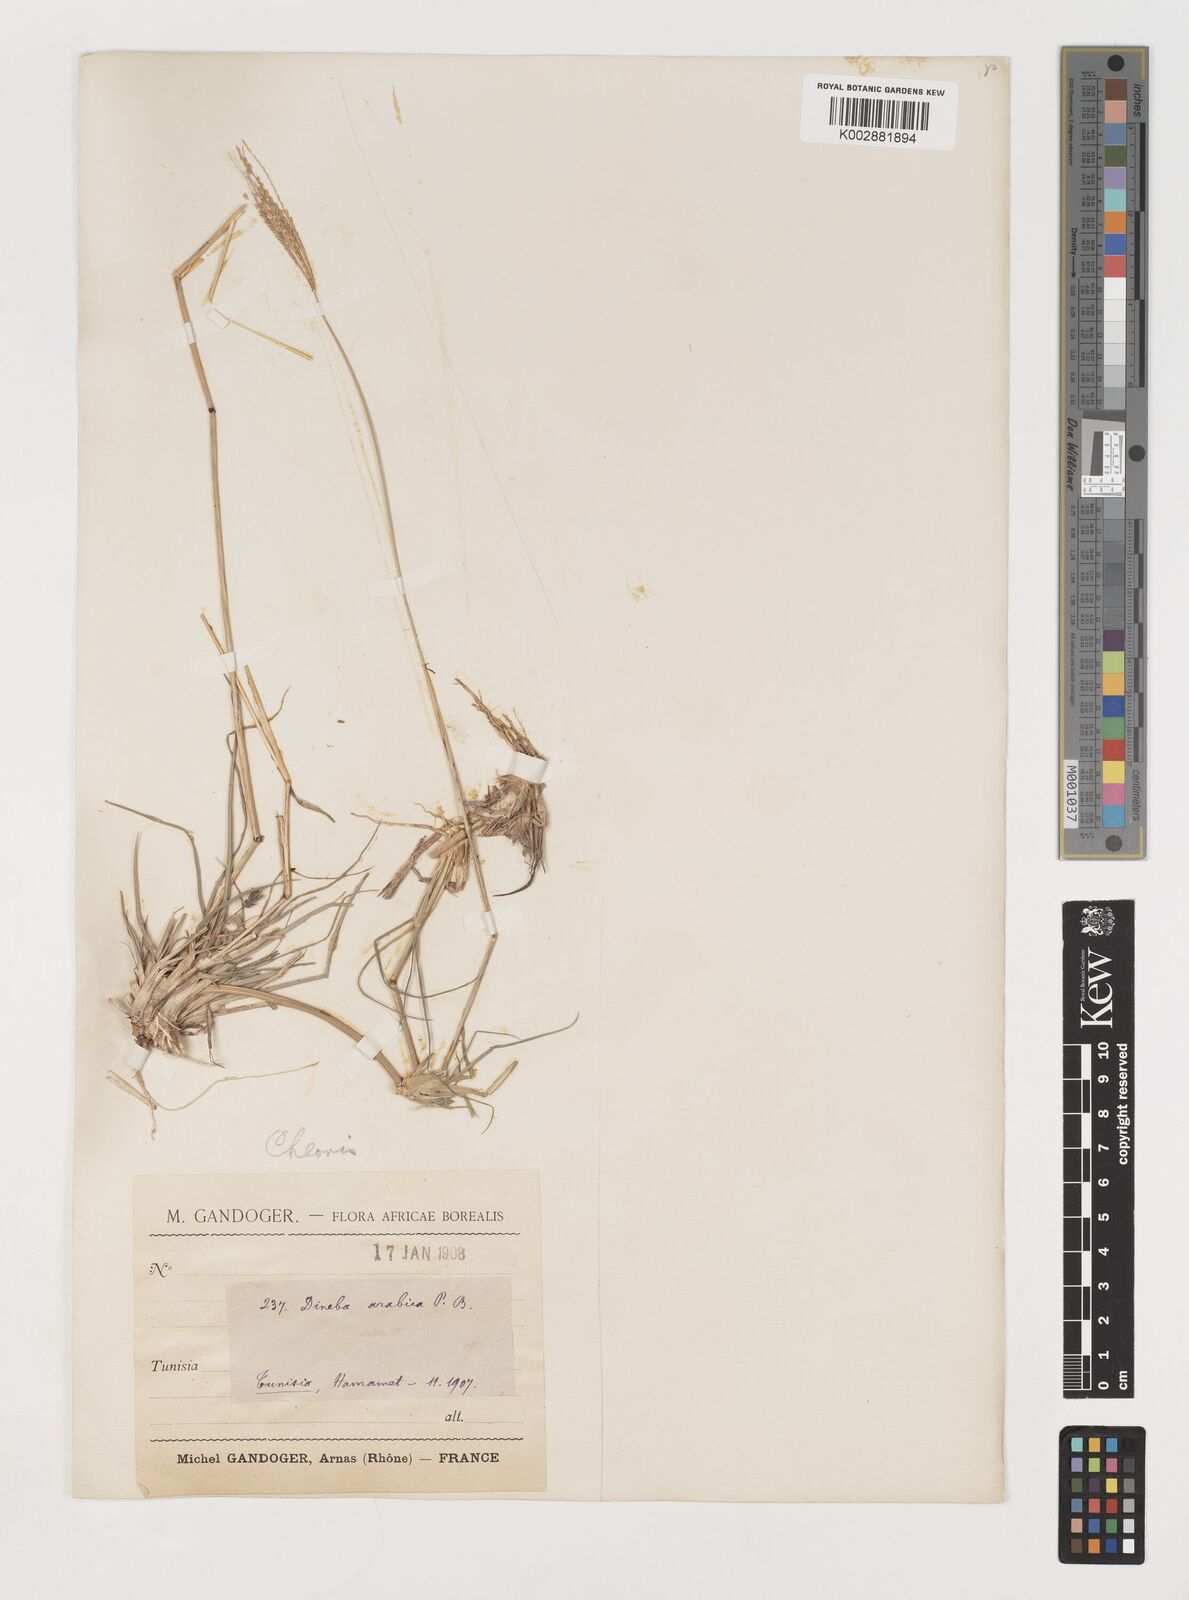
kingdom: Plantae
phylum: Tracheophyta
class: Liliopsida
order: Poales
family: Poaceae
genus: Chloris
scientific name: Chloris gayana
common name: Rhodes grass
